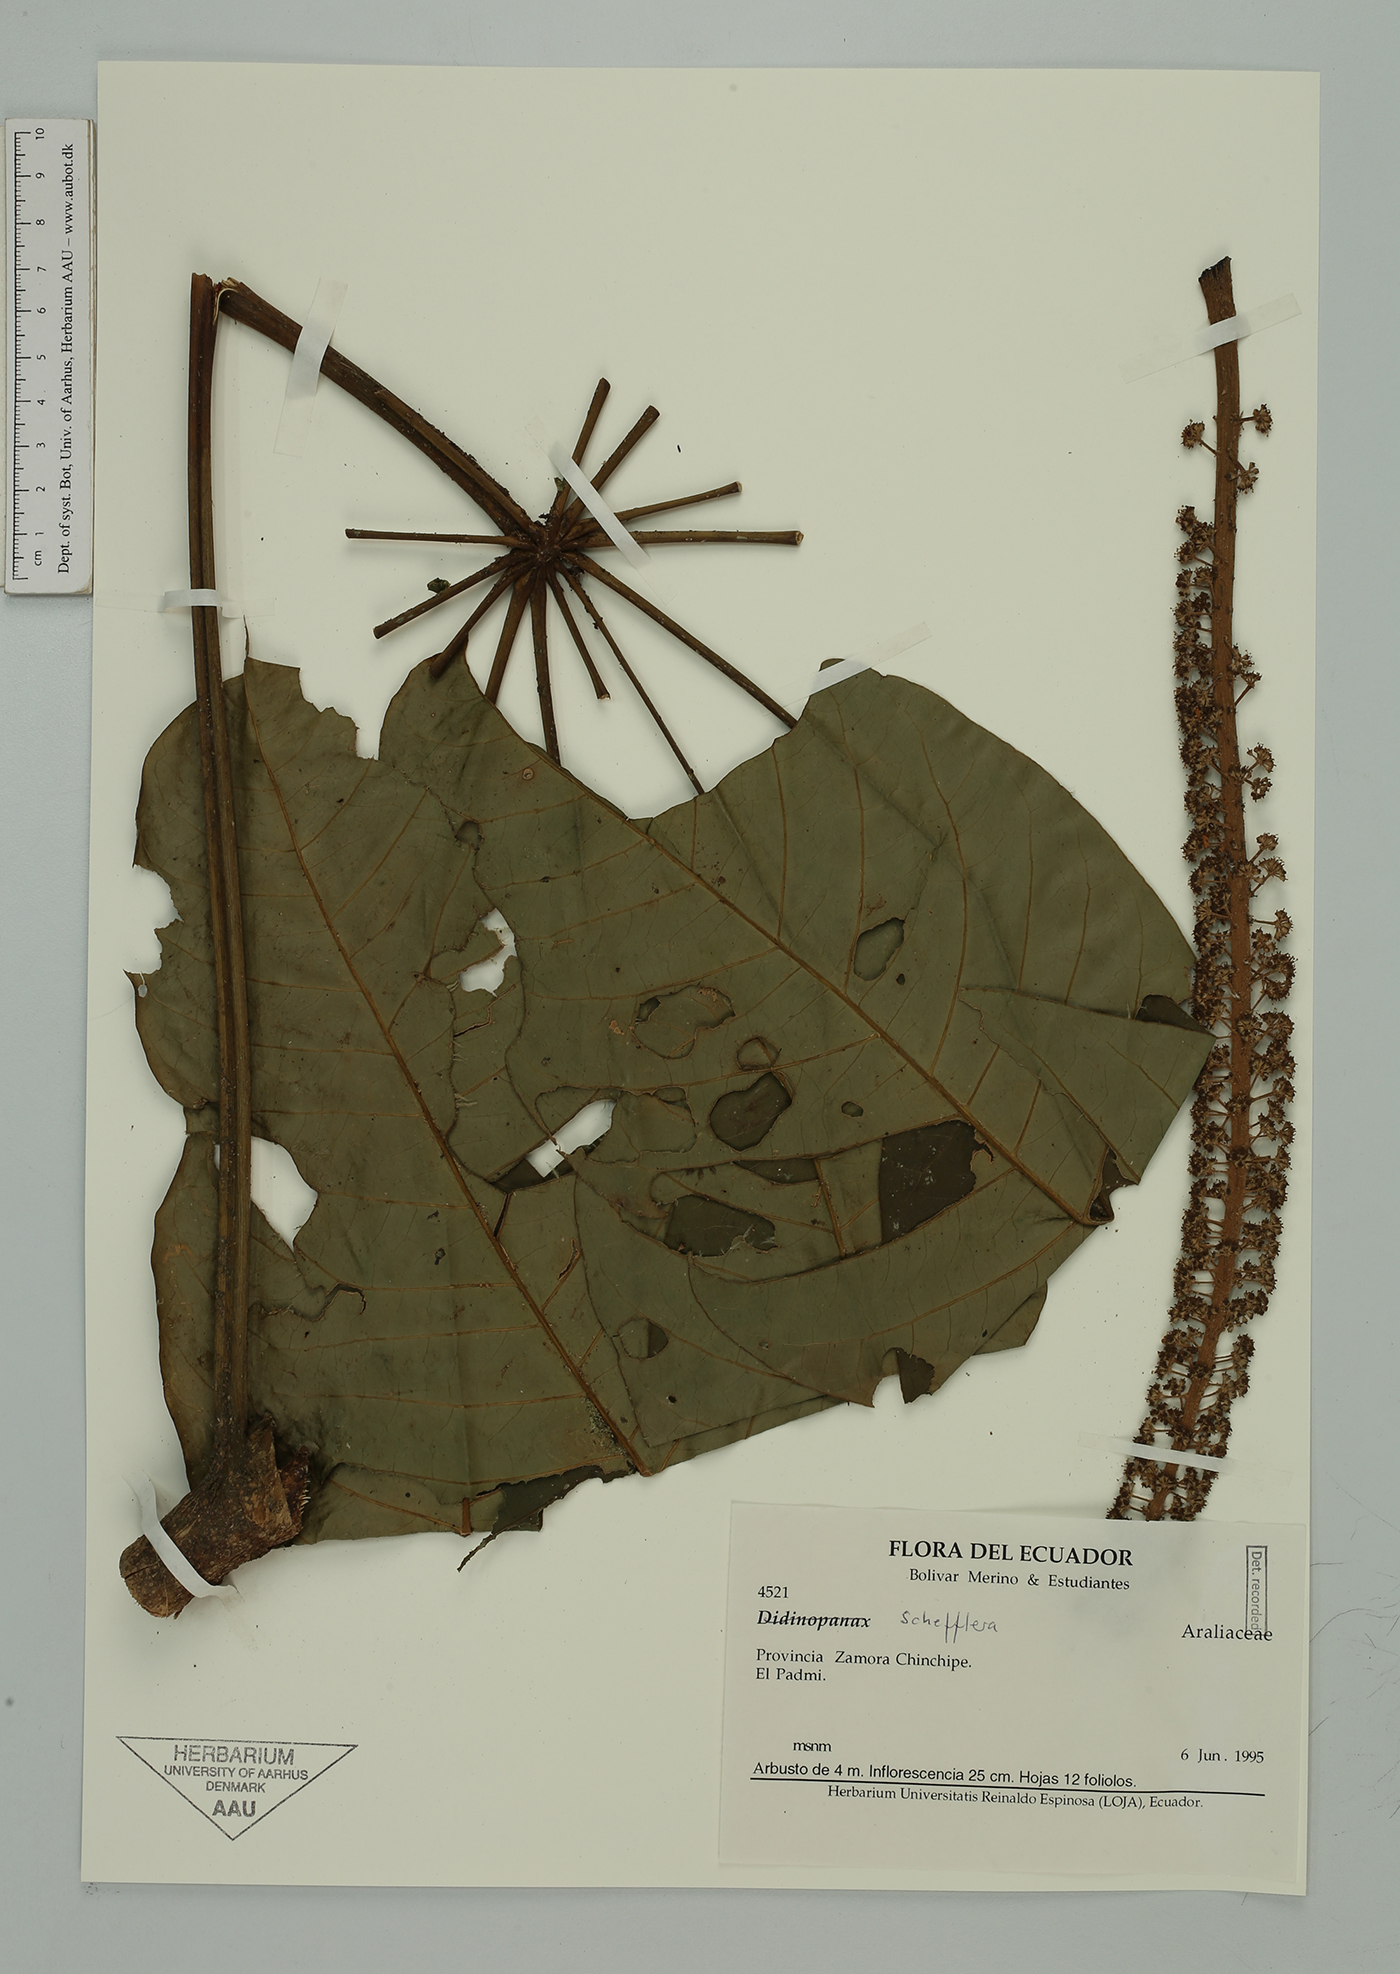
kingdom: Plantae
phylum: Tracheophyta
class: Magnoliopsida
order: Apiales
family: Araliaceae
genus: Sciodaphyllum
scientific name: Sciodaphyllum
